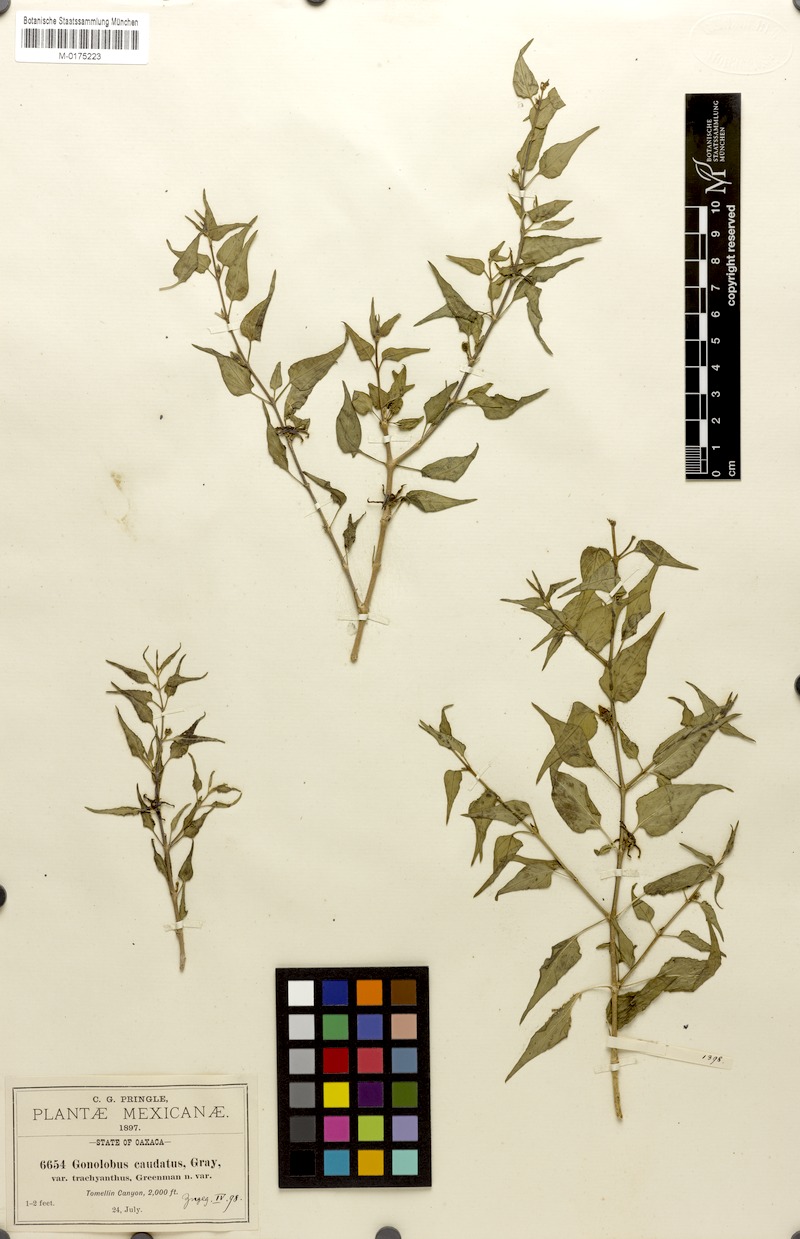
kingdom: Plantae
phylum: Tracheophyta
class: Magnoliopsida
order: Gentianales
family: Apocynaceae
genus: Talayotea
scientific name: Talayotea trachyantha
